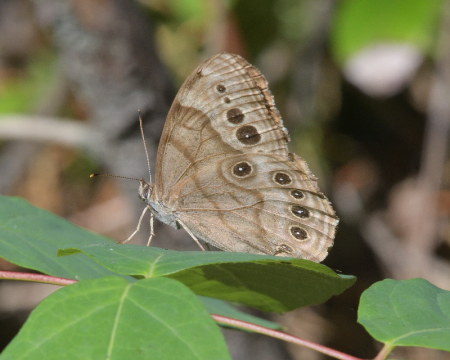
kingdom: Animalia
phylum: Arthropoda
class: Insecta
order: Lepidoptera
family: Nymphalidae
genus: Lethe
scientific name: Lethe anthedon
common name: Northern Pearly-Eye
